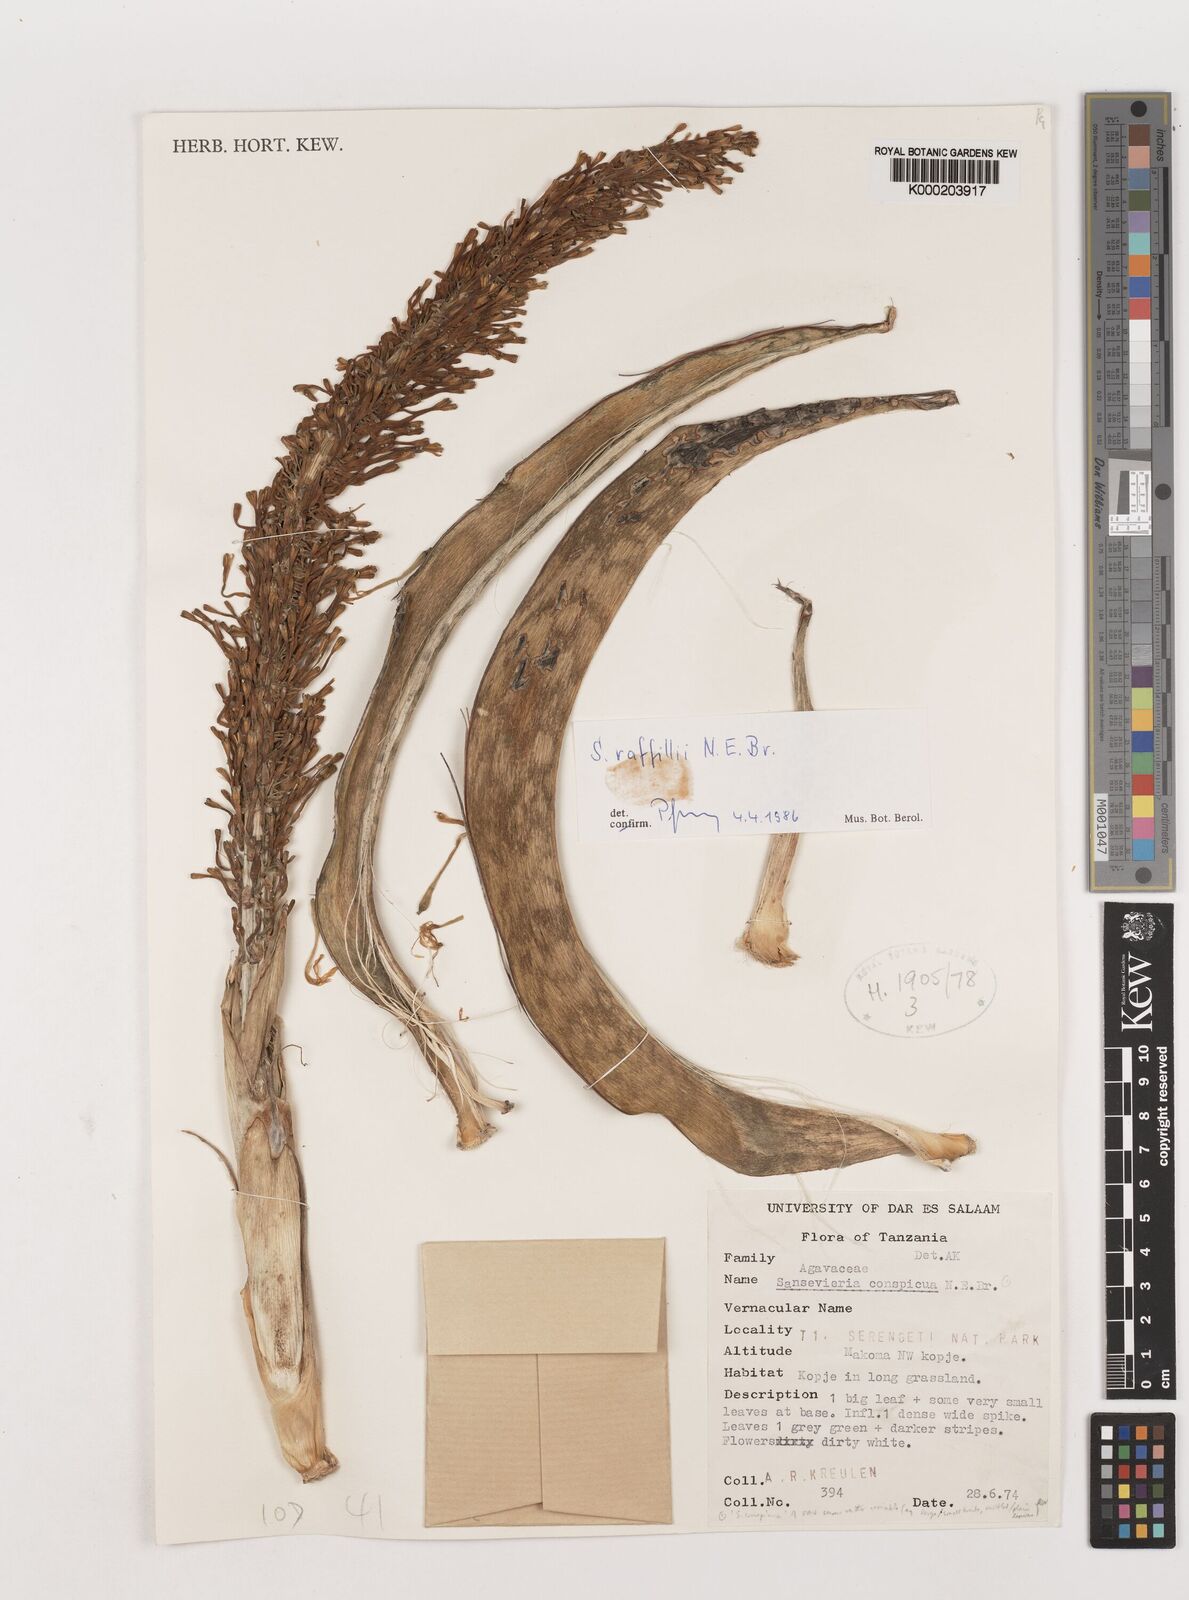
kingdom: Plantae
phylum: Tracheophyta
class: Liliopsida
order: Asparagales
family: Asparagaceae
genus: Dracaena
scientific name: Dracaena raffillii
